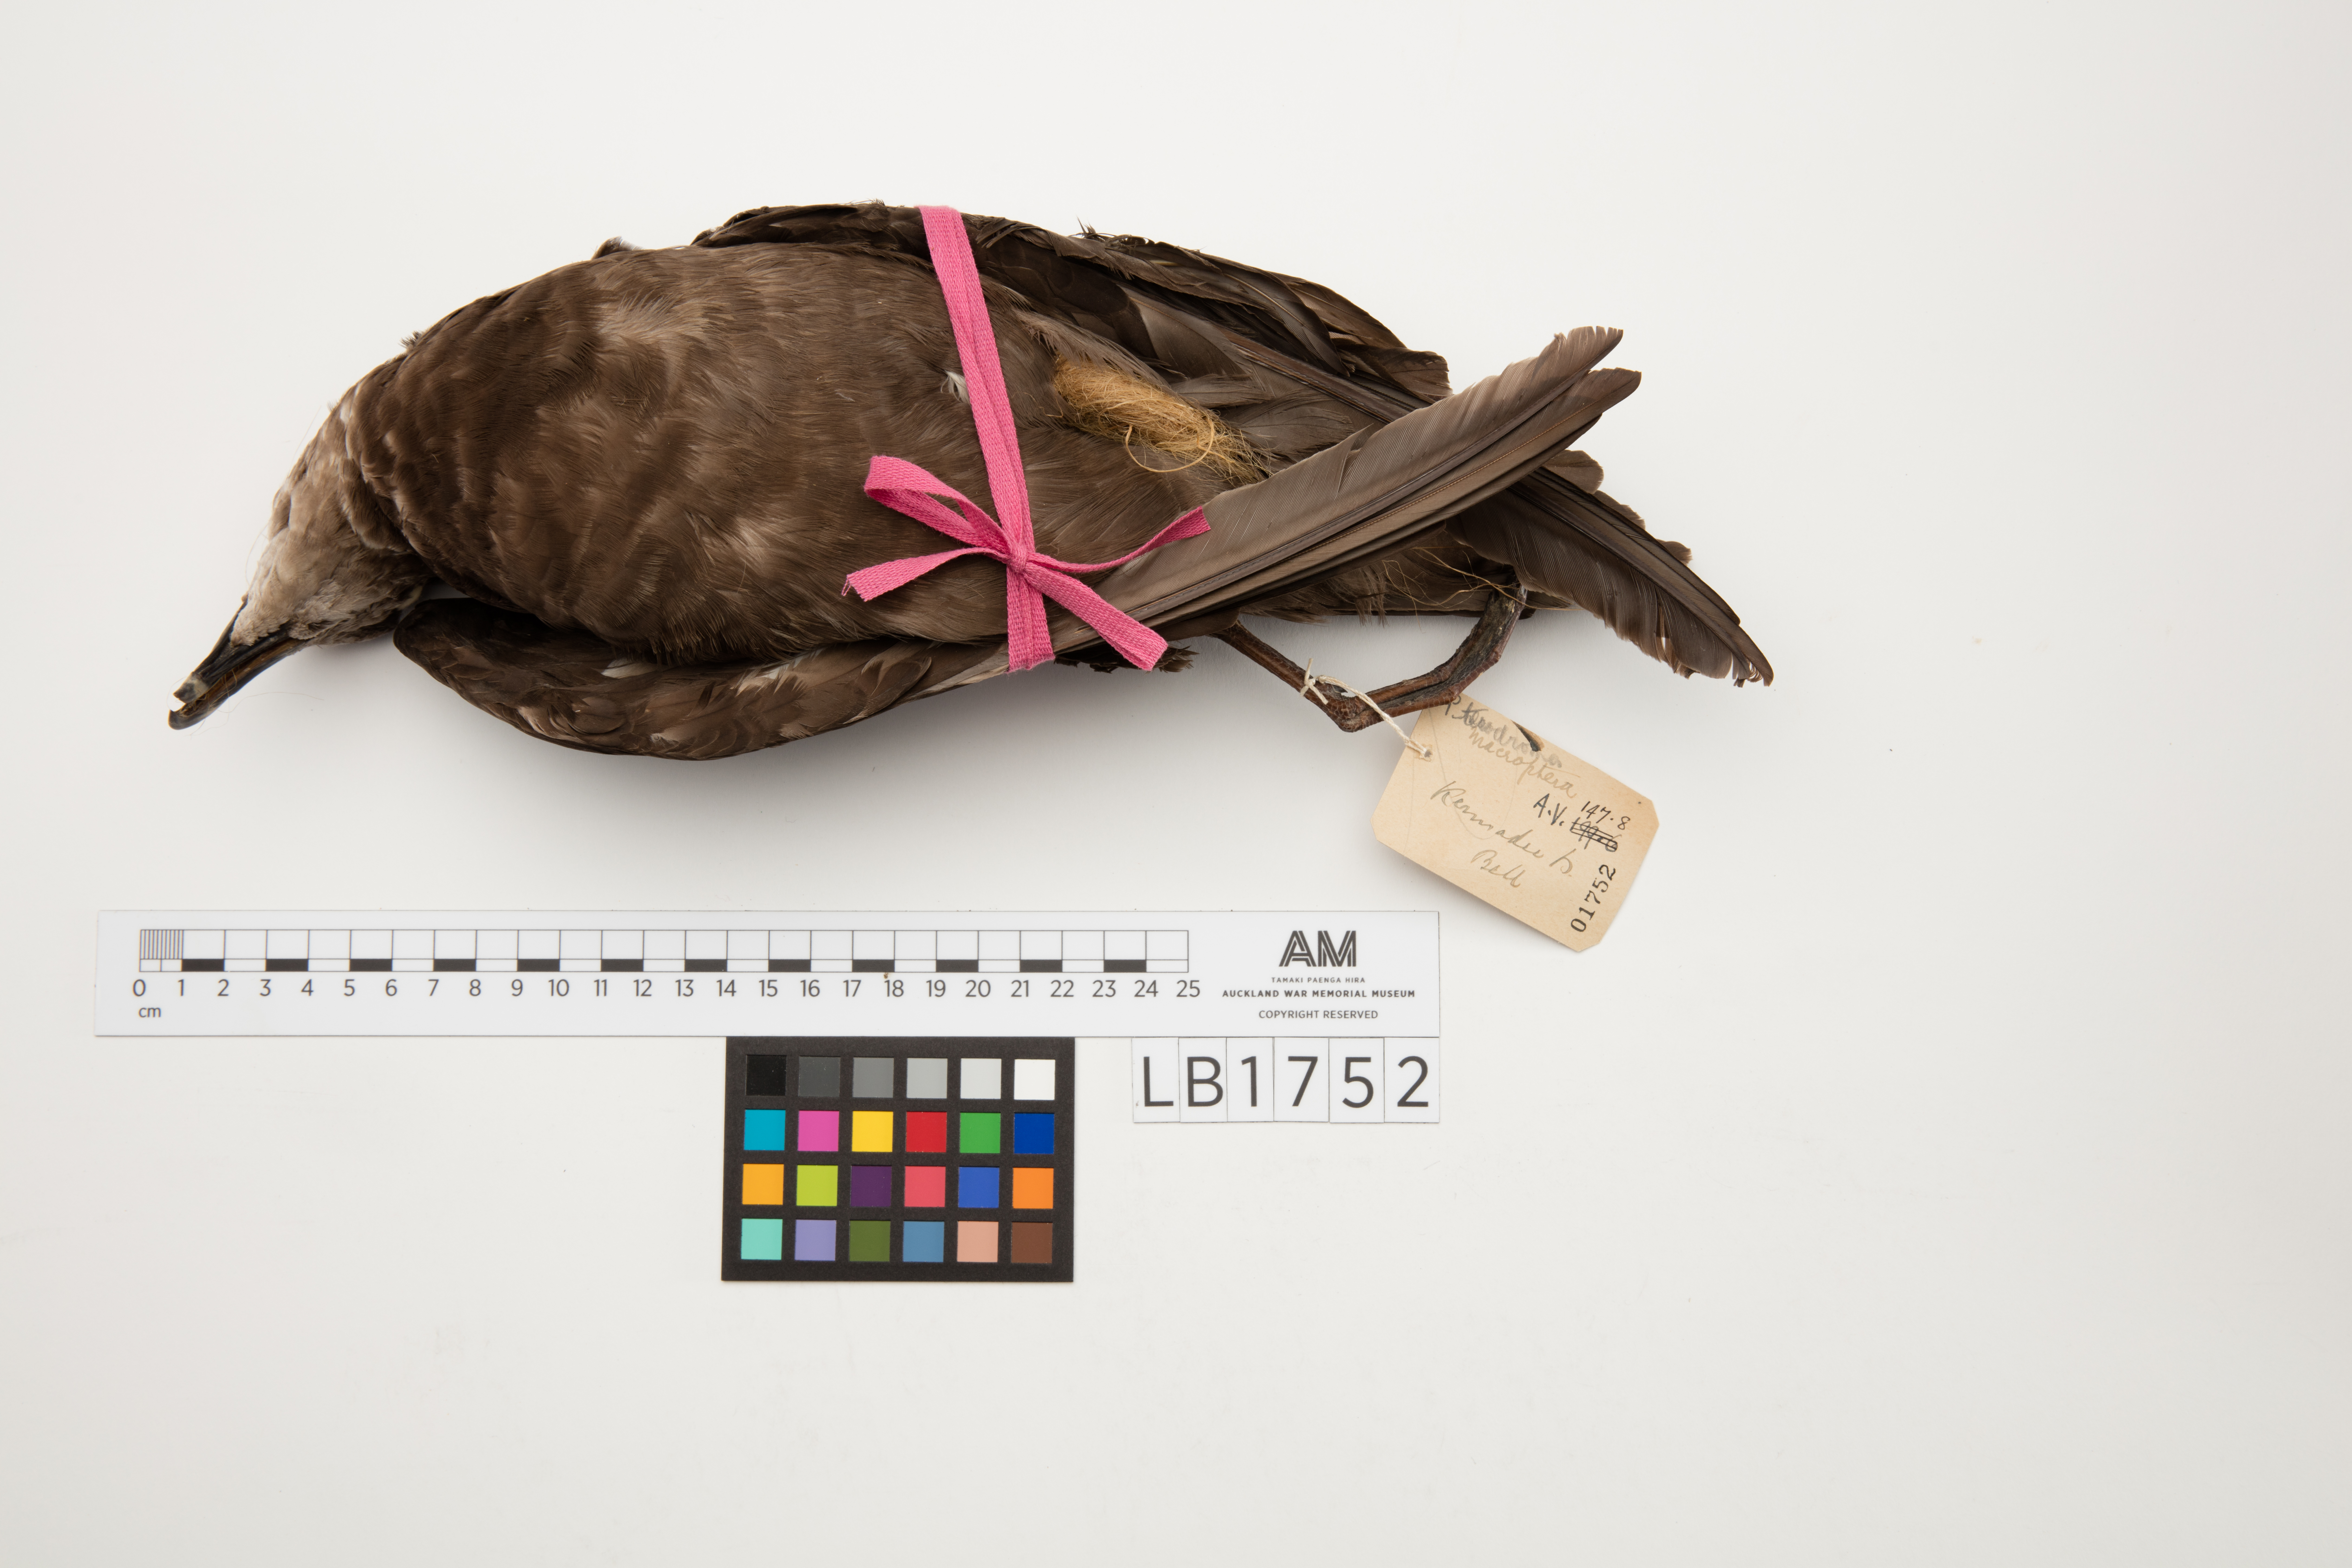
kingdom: Animalia
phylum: Chordata
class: Aves
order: Procellariiformes
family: Procellariidae
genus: Pterodroma
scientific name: Pterodroma macroptera
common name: Great-winged petrel
